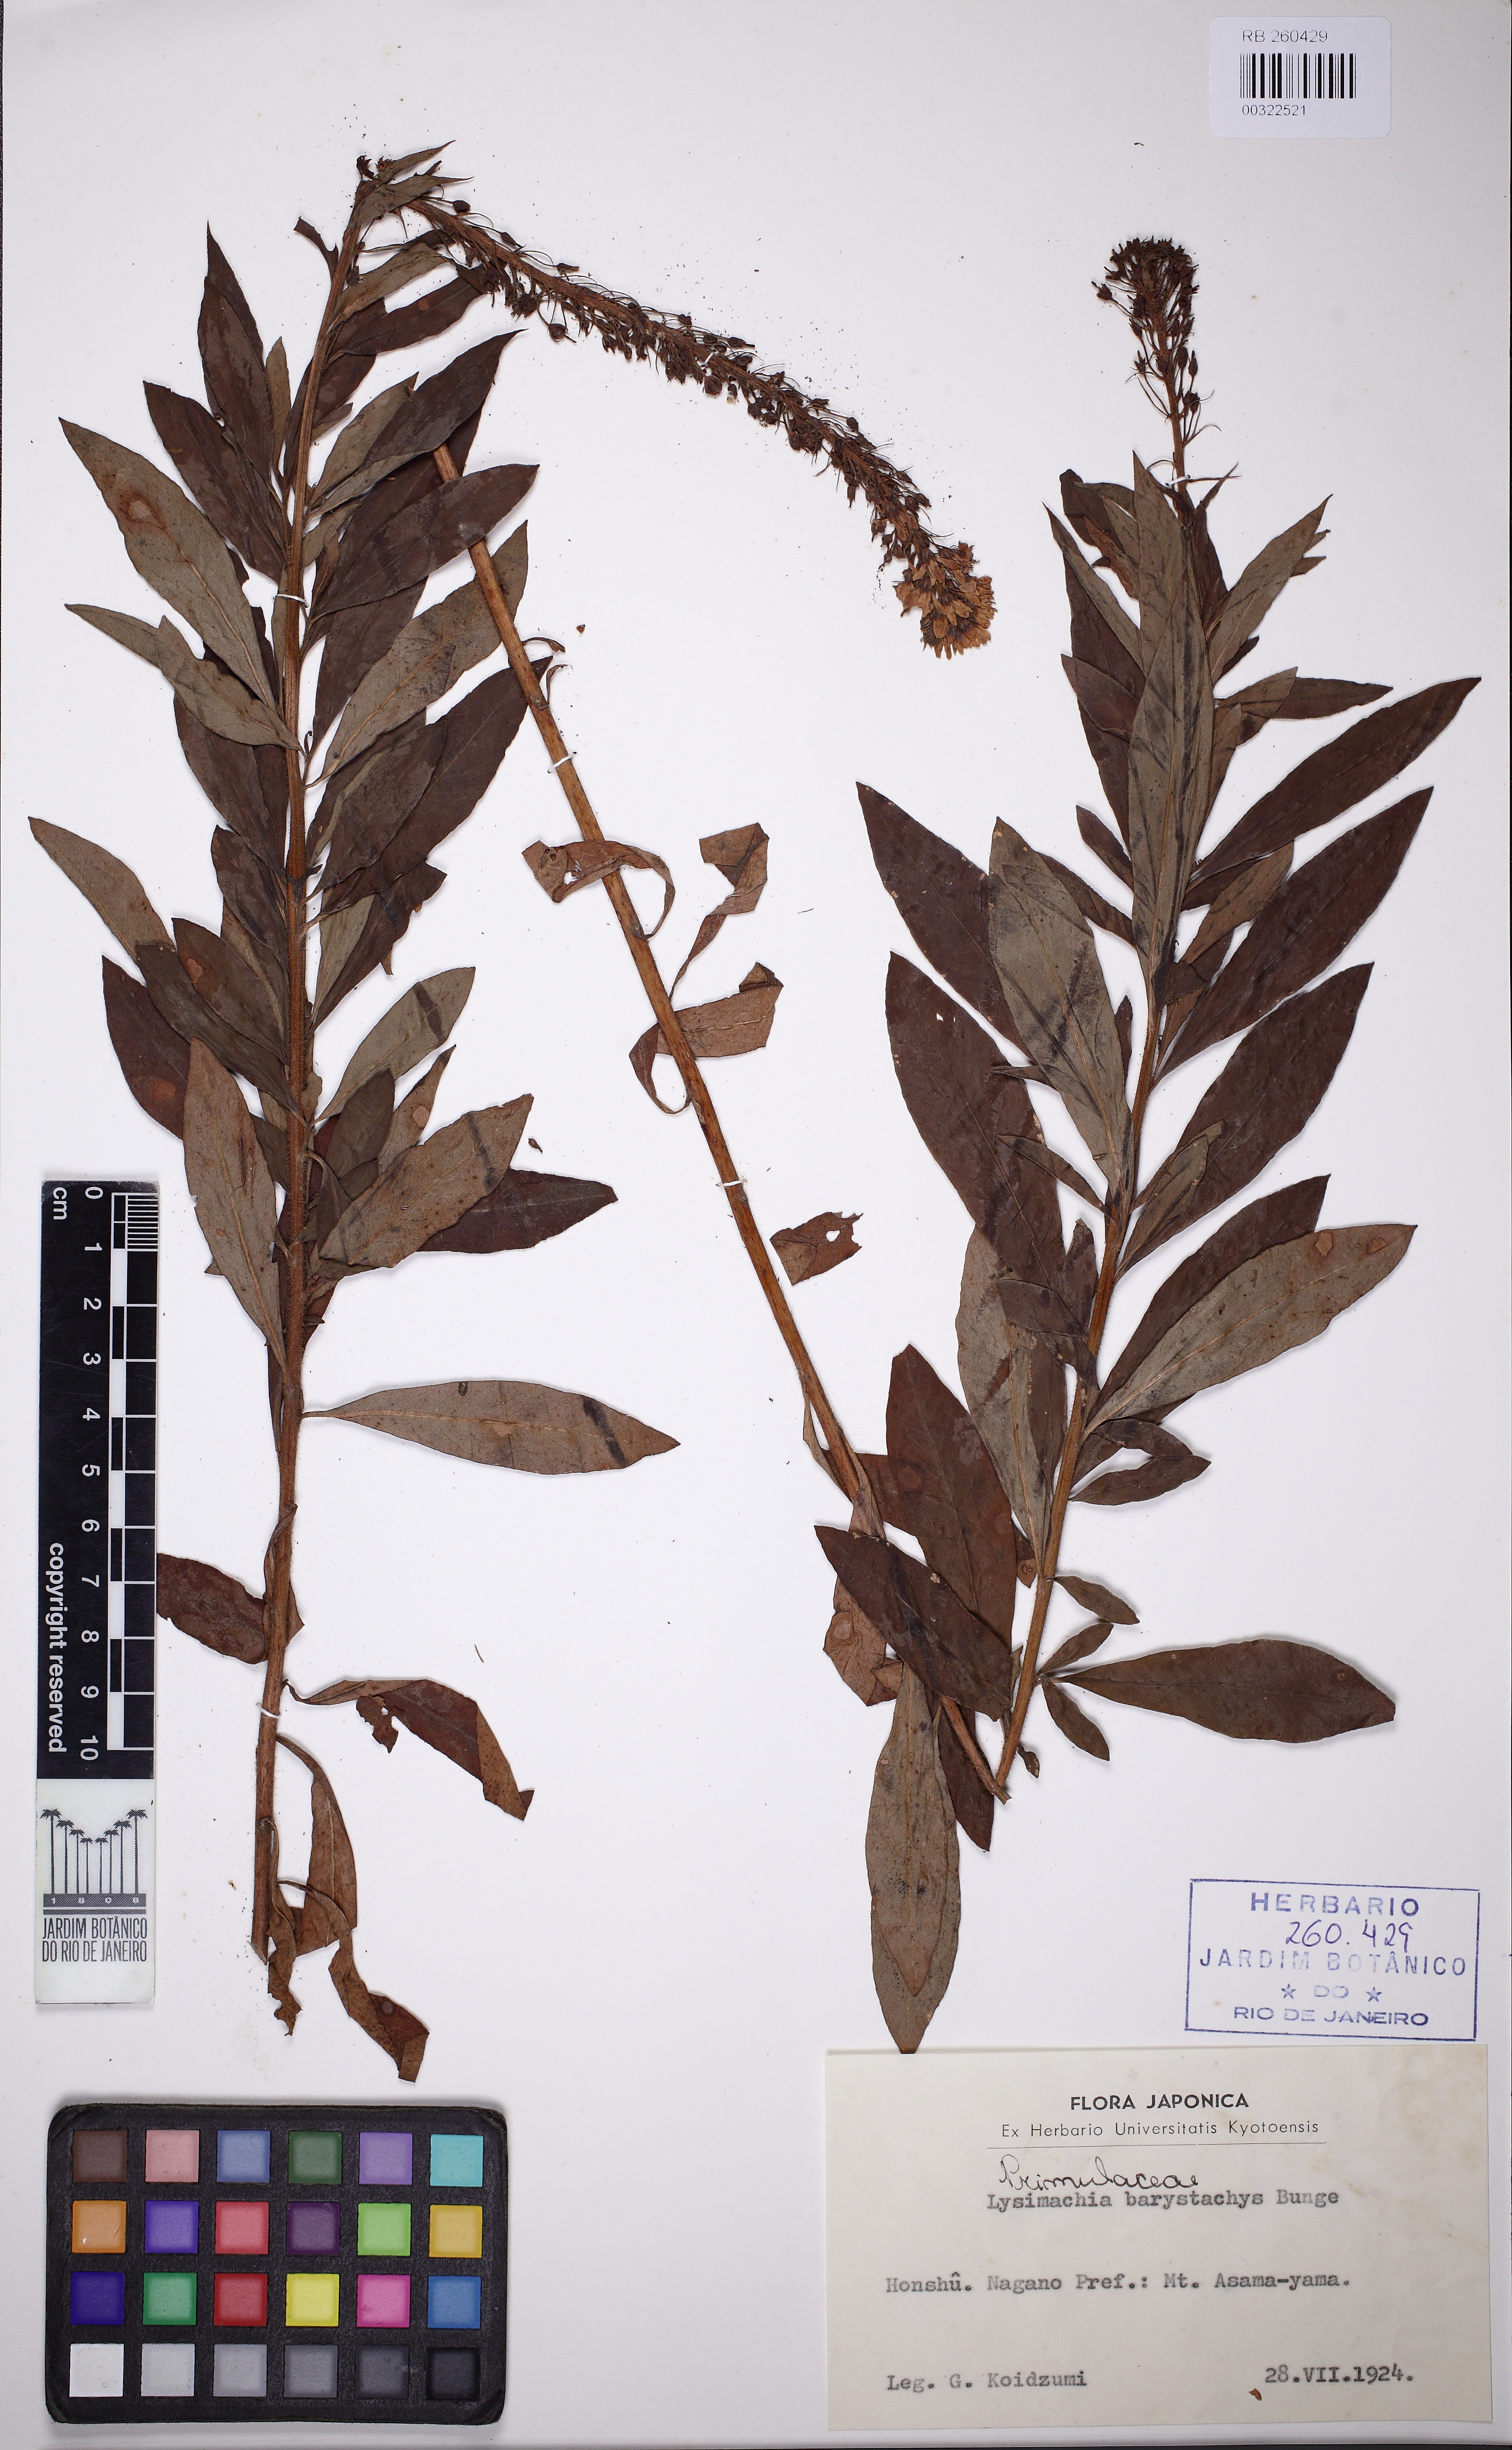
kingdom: Plantae
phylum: Tracheophyta
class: Magnoliopsida
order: Ericales
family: Primulaceae
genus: Lysimachia
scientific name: Lysimachia barystachys
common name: Manchurian yellow loosestrife
